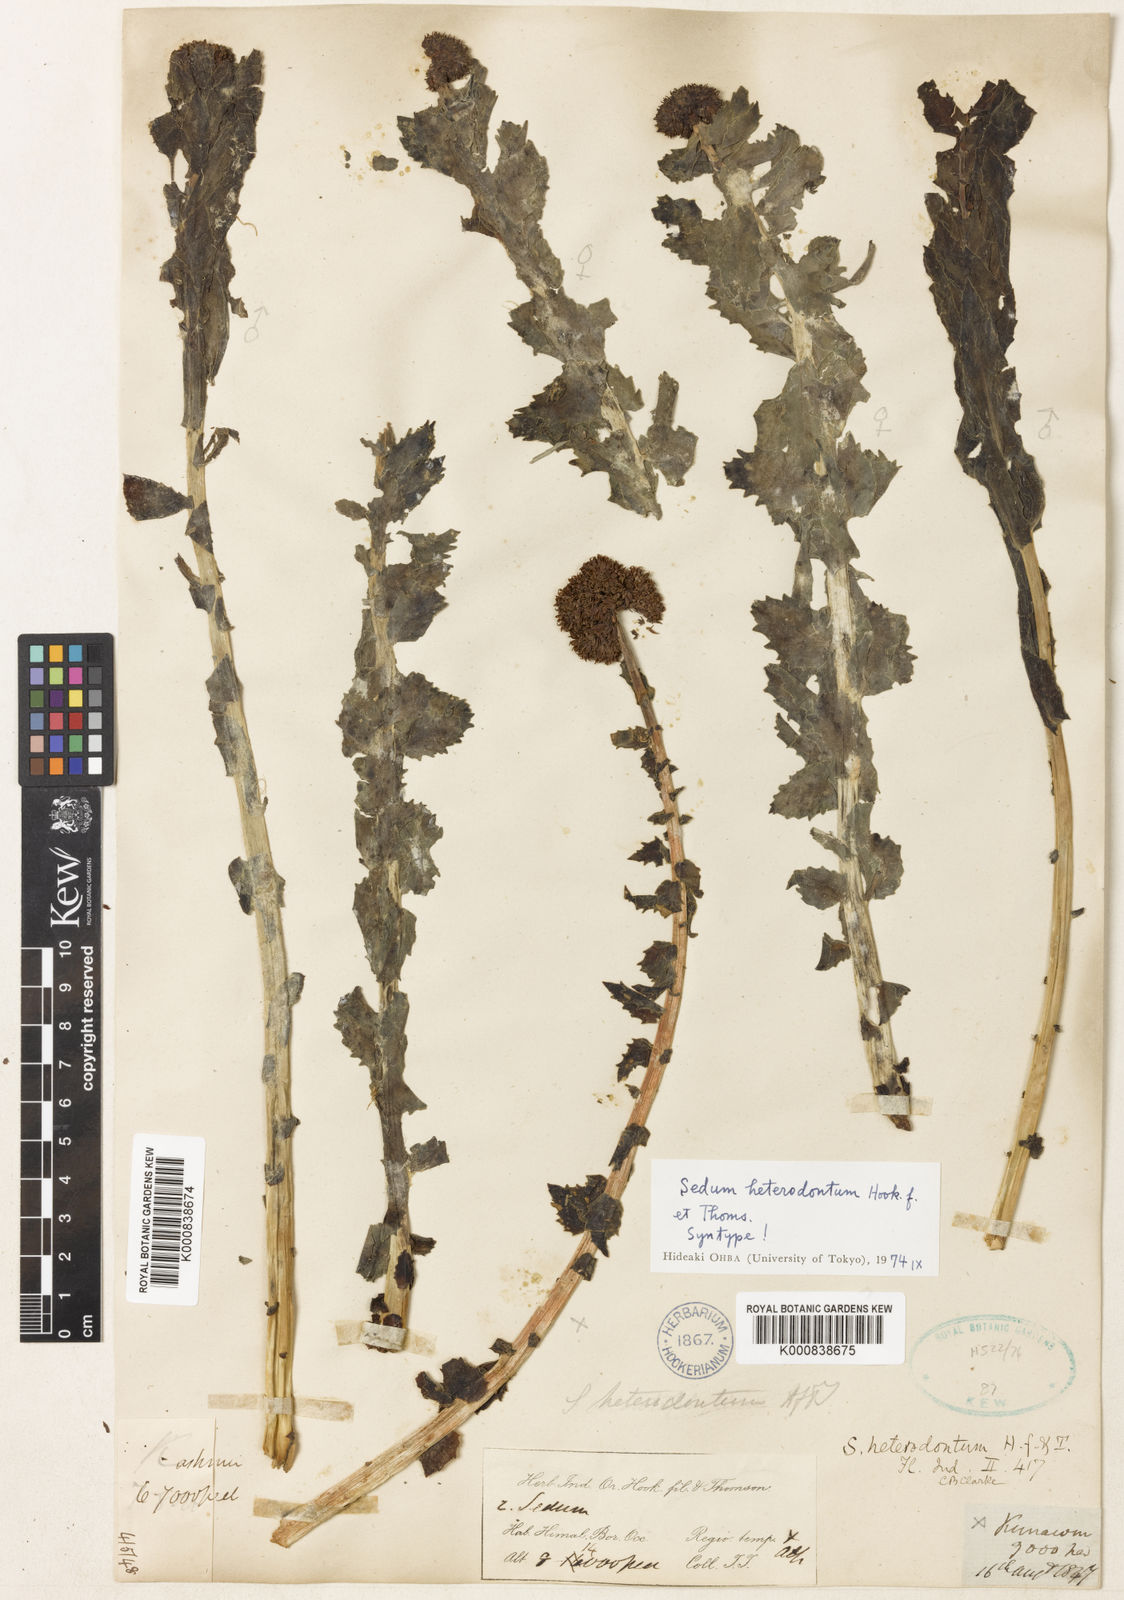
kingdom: Plantae
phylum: Tracheophyta
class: Magnoliopsida
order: Saxifragales
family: Crassulaceae
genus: Rhodiola
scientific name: Rhodiola rosea
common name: Roseroot
